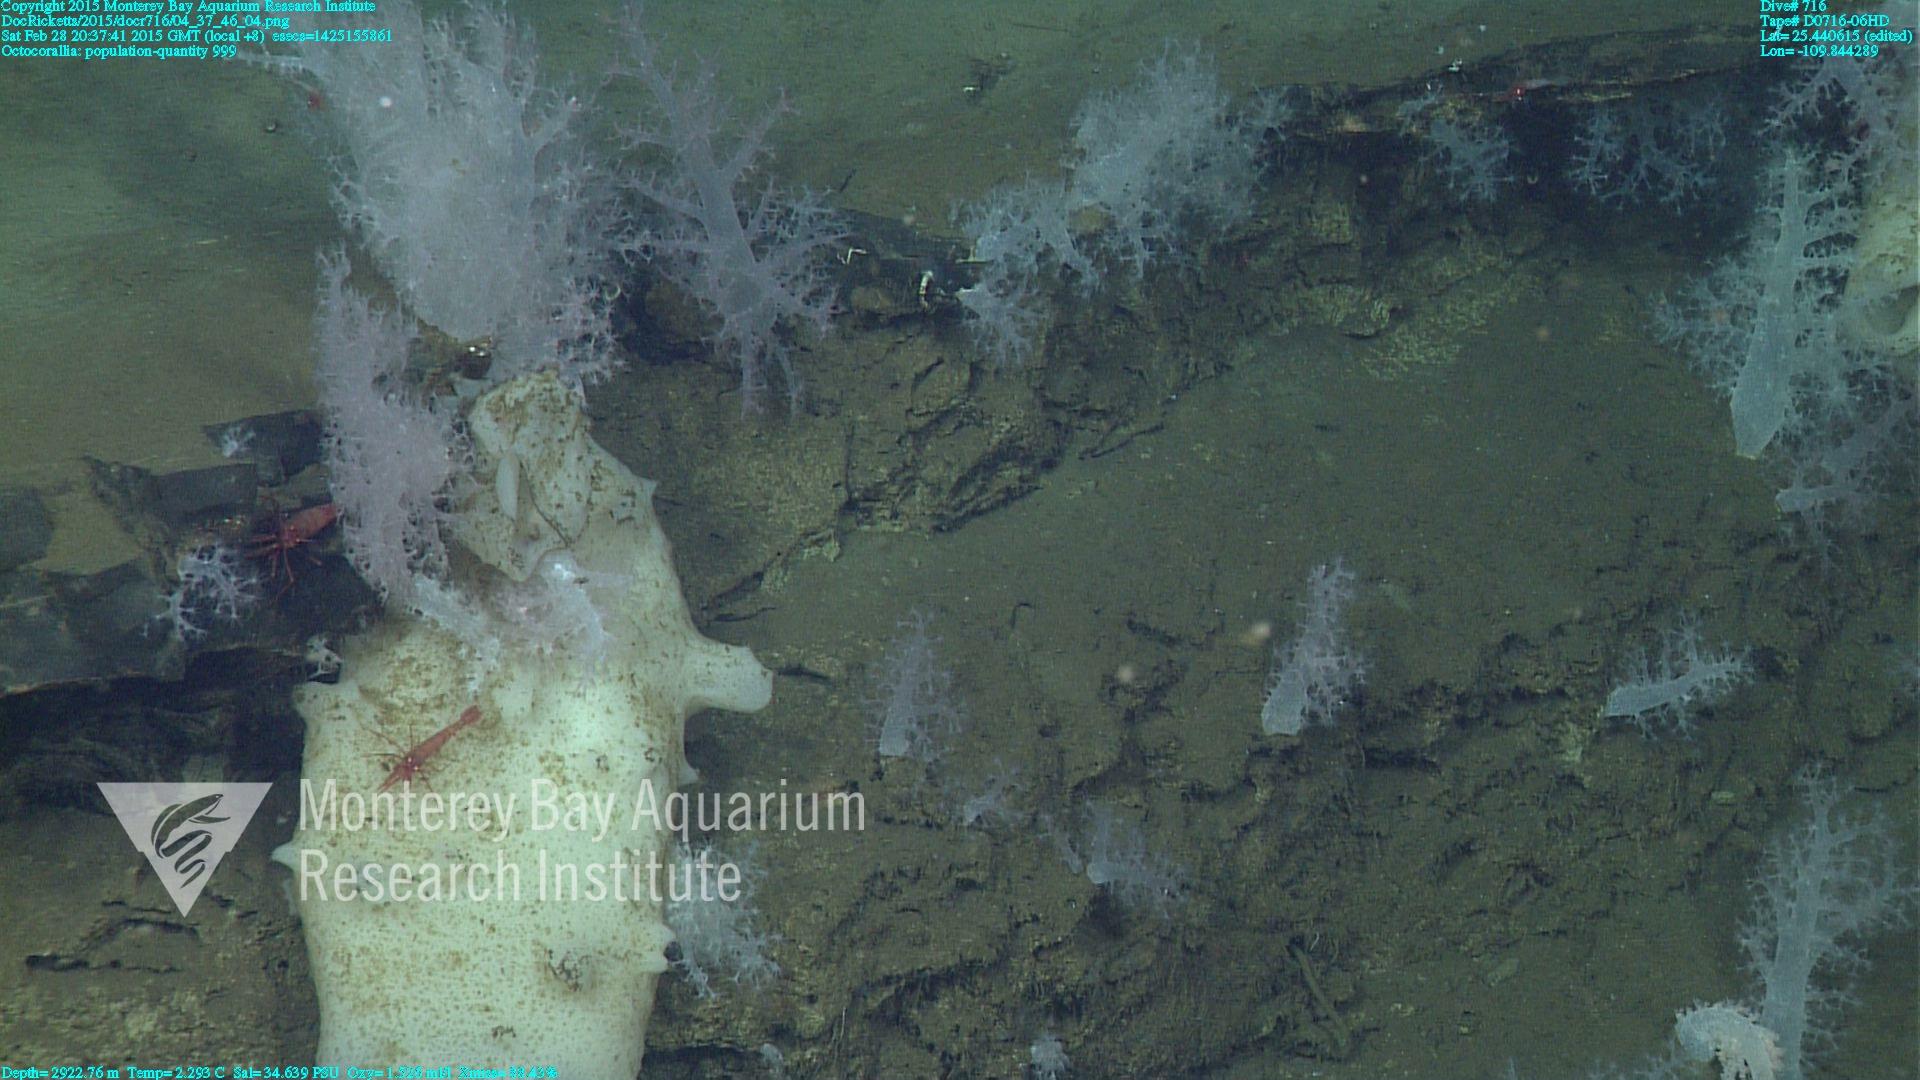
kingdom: Animalia
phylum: Cnidaria
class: Anthozoa
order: Malacalcyonacea
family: Alcyoniidae
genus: Gersemia
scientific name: Gersemia juliepackardae
